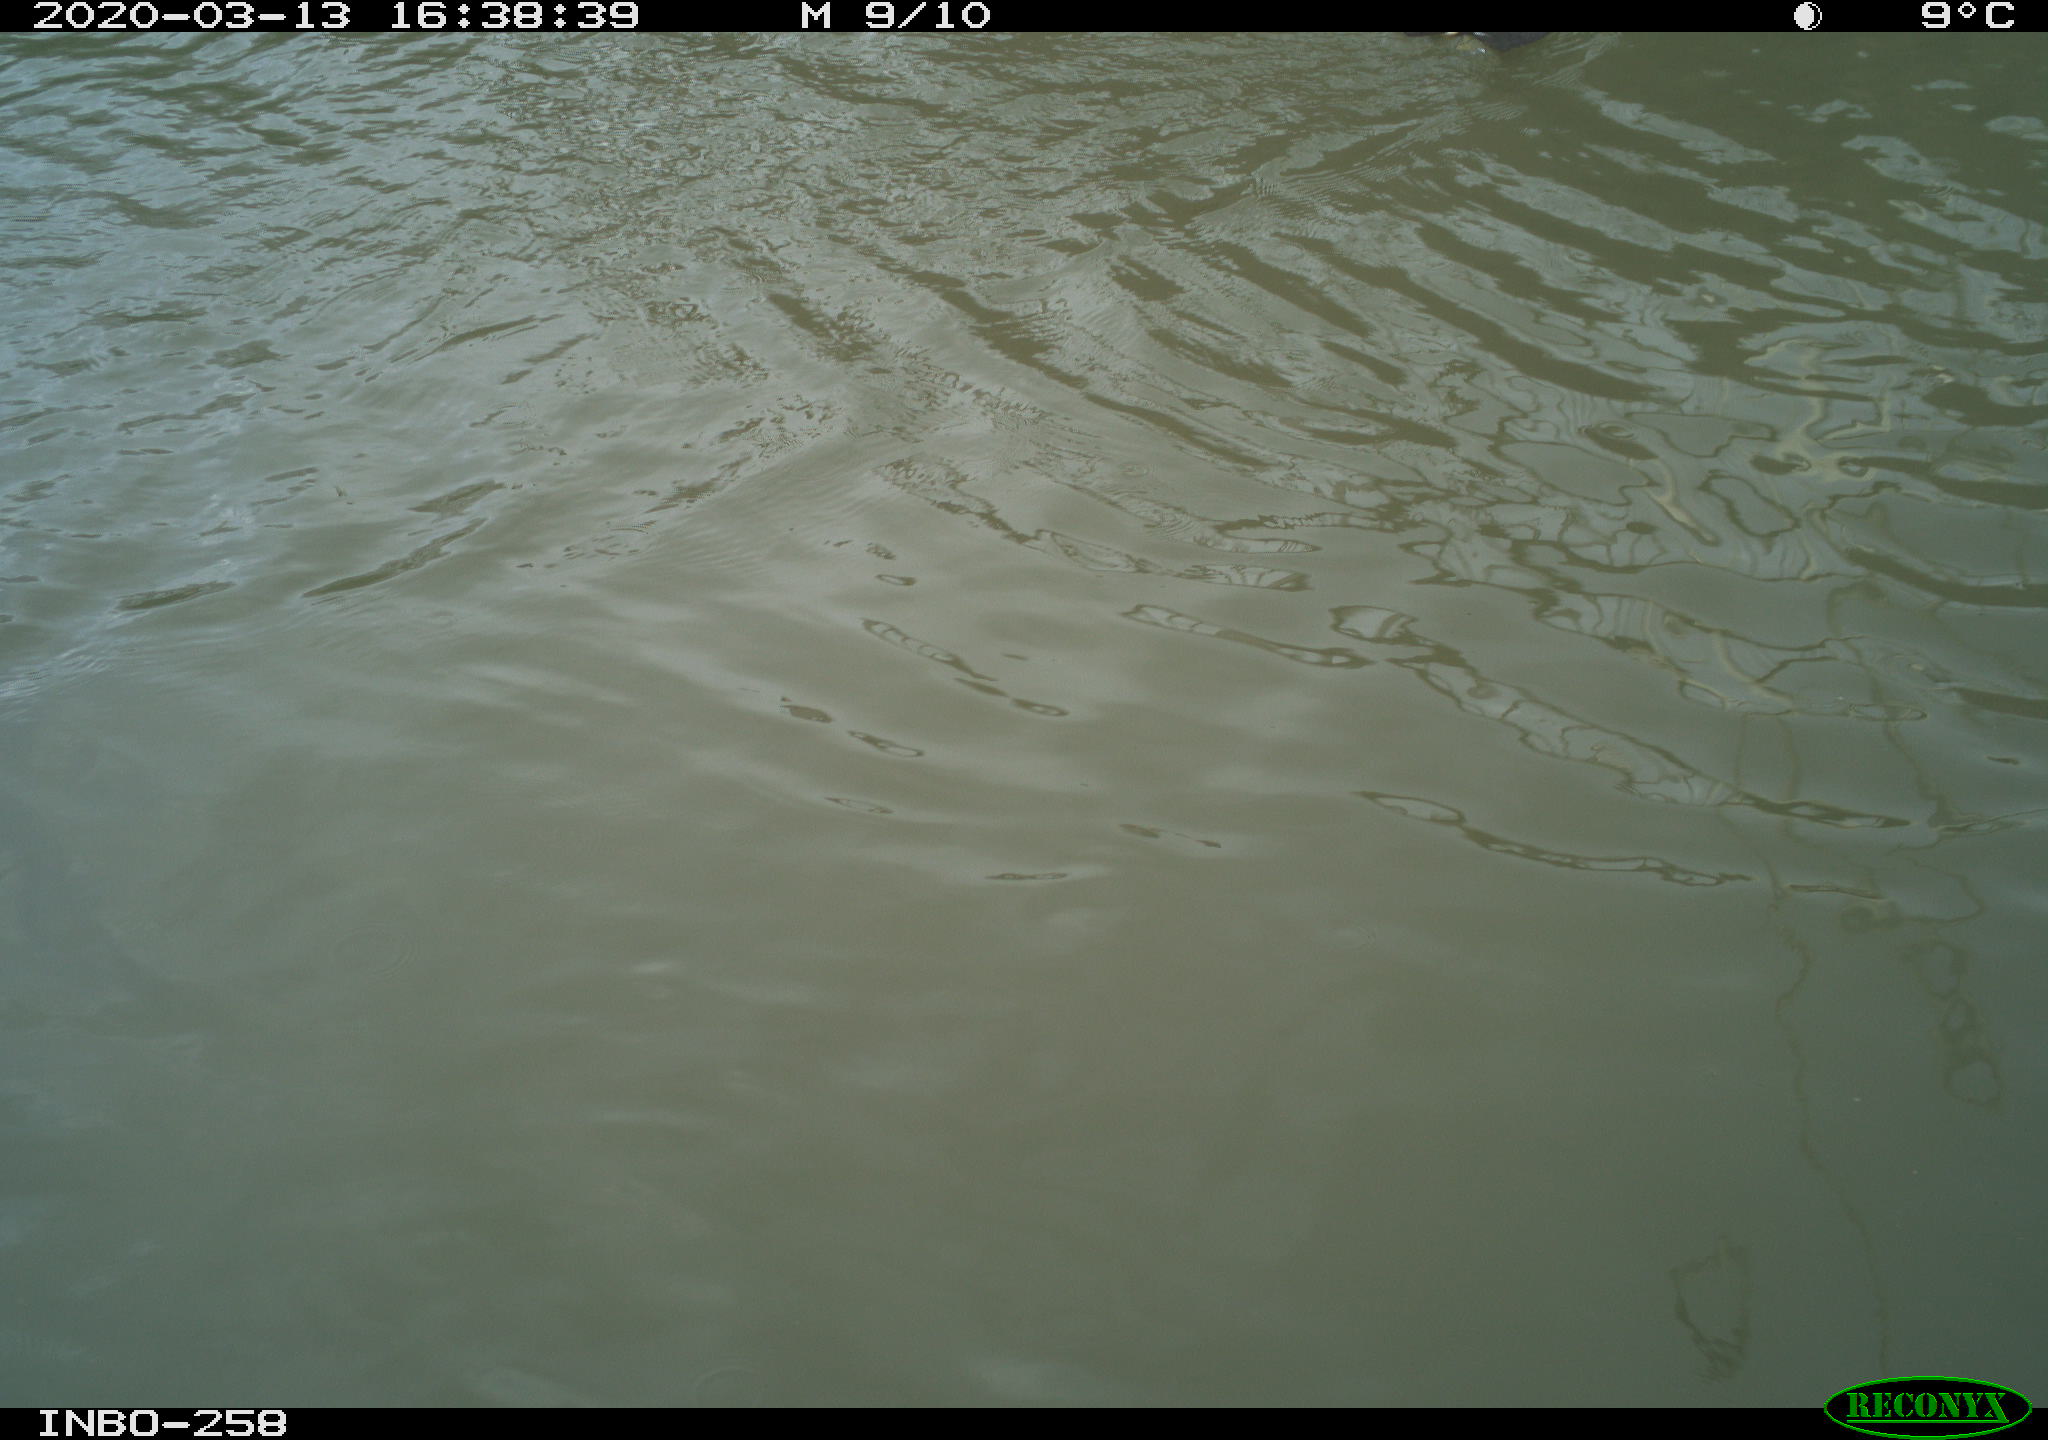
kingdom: Animalia
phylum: Chordata
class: Aves
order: Gruiformes
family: Rallidae
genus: Gallinula
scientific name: Gallinula chloropus
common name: Common moorhen
